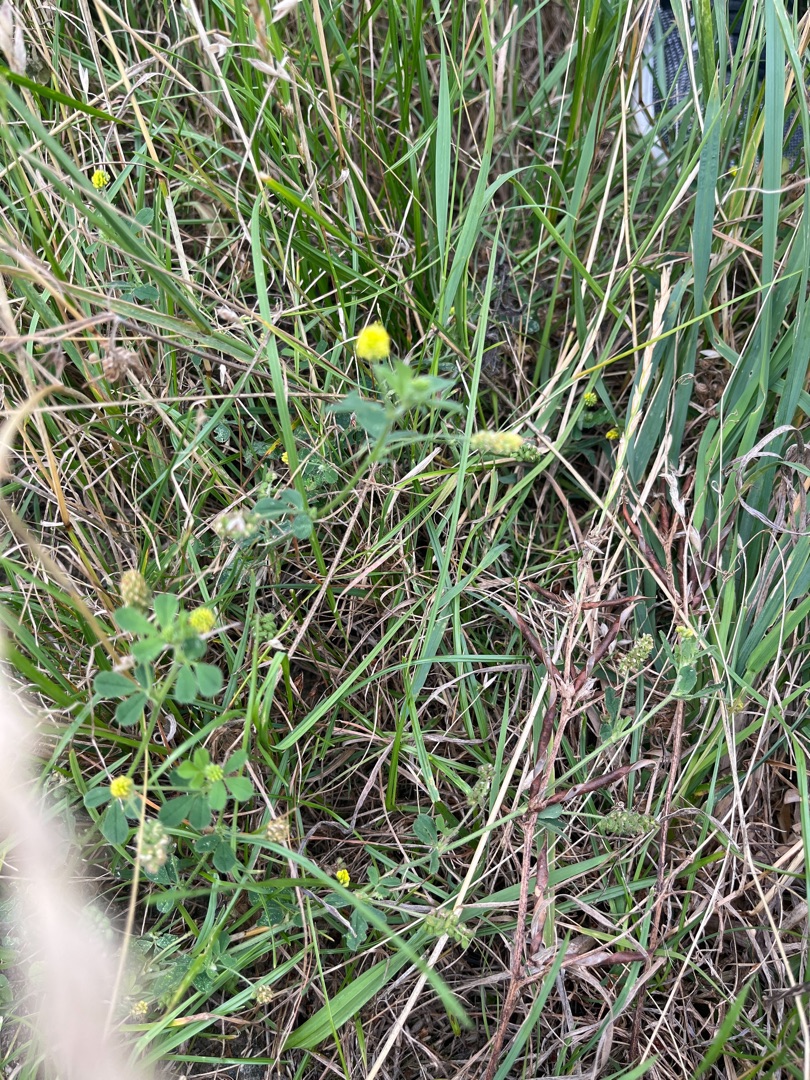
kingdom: Plantae
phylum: Tracheophyta
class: Magnoliopsida
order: Fabales
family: Fabaceae
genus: Medicago
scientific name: Medicago lupulina
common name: Humle-sneglebælg
